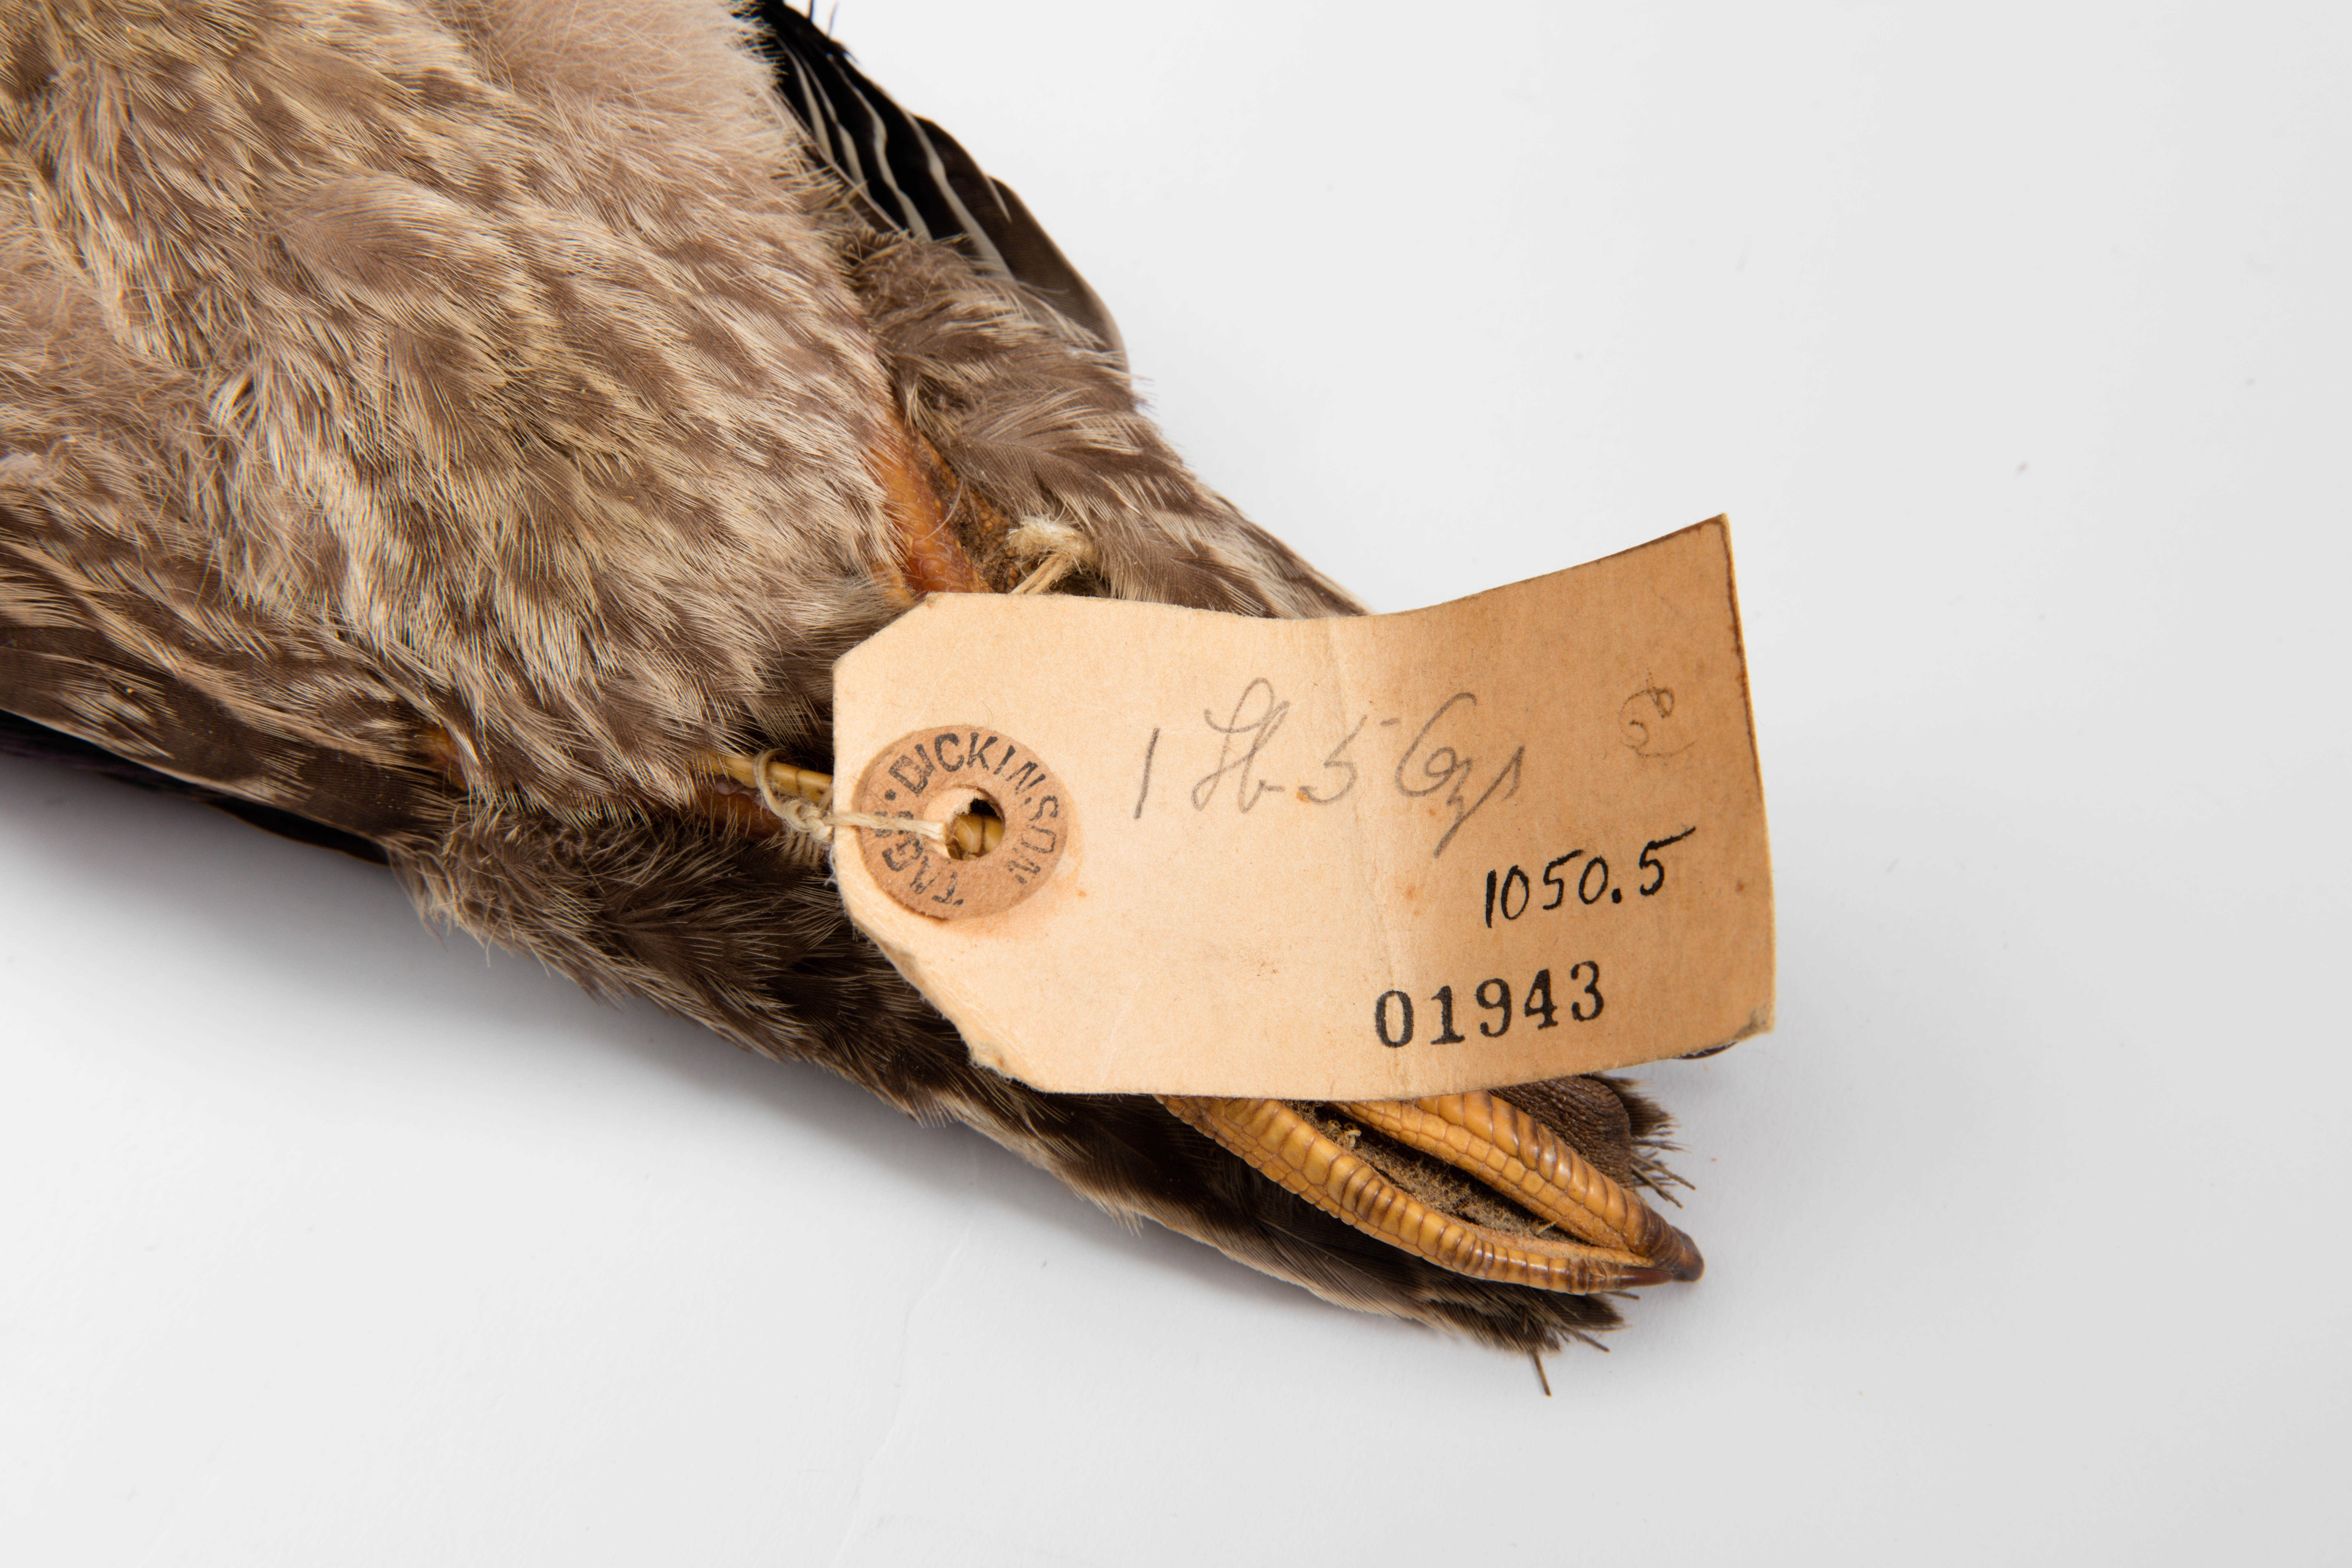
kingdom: Animalia
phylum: Chordata
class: Aves
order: Anseriformes
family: Anatidae
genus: Anas
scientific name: Anas platyrhynchos
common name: Mallard
